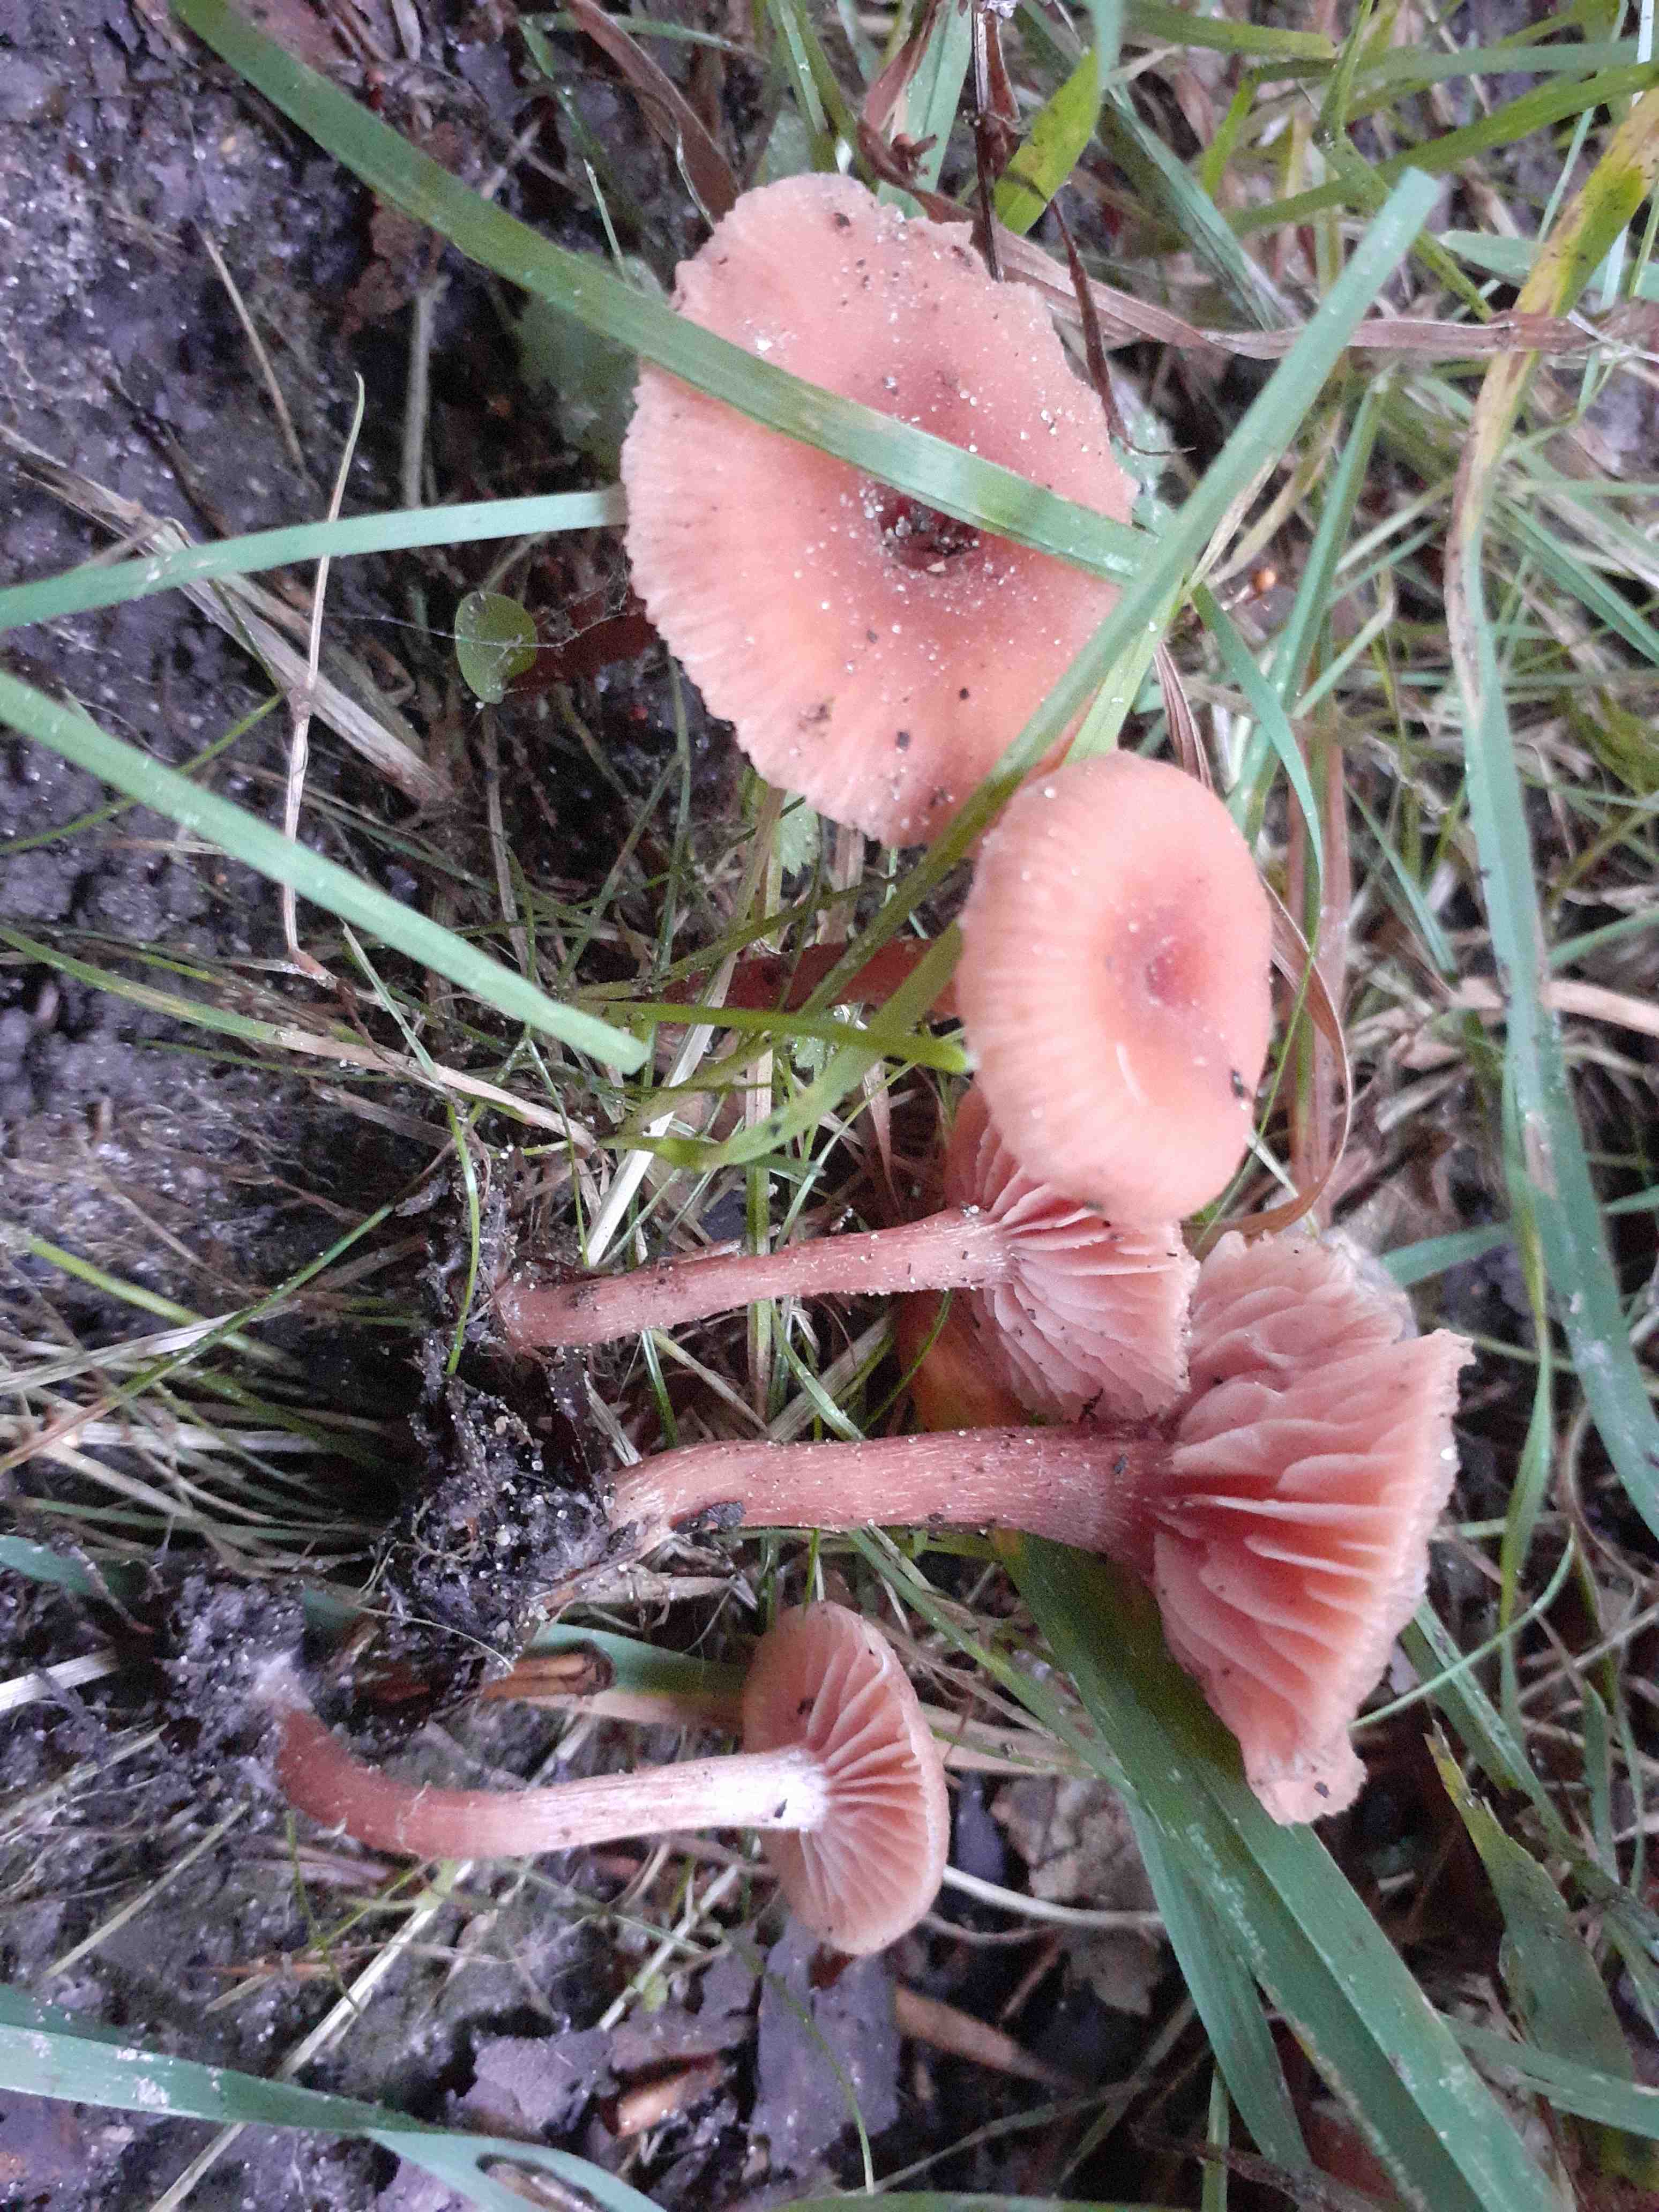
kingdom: Fungi
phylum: Basidiomycota
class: Agaricomycetes
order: Agaricales
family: Hydnangiaceae
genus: Laccaria
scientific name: Laccaria laccata
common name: rød ametysthat
